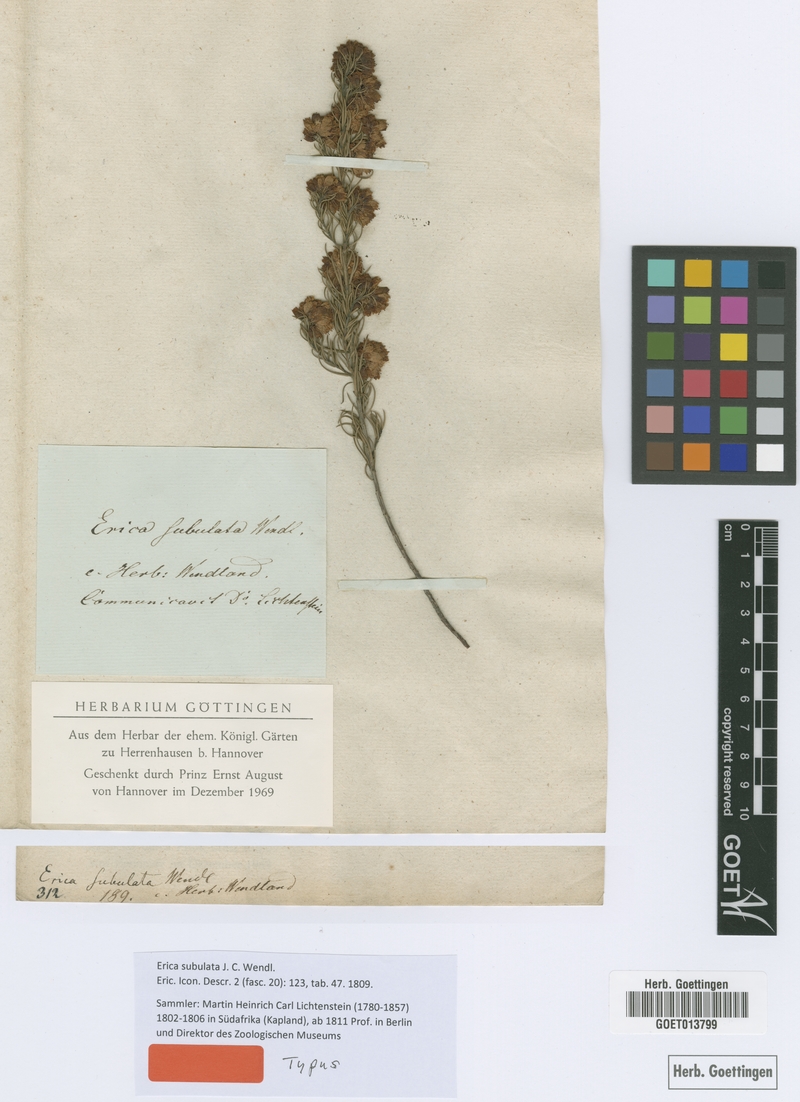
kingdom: Plantae
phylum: Tracheophyta
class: Magnoliopsida
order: Ericales
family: Ericaceae
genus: Erica
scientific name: Erica subulata
